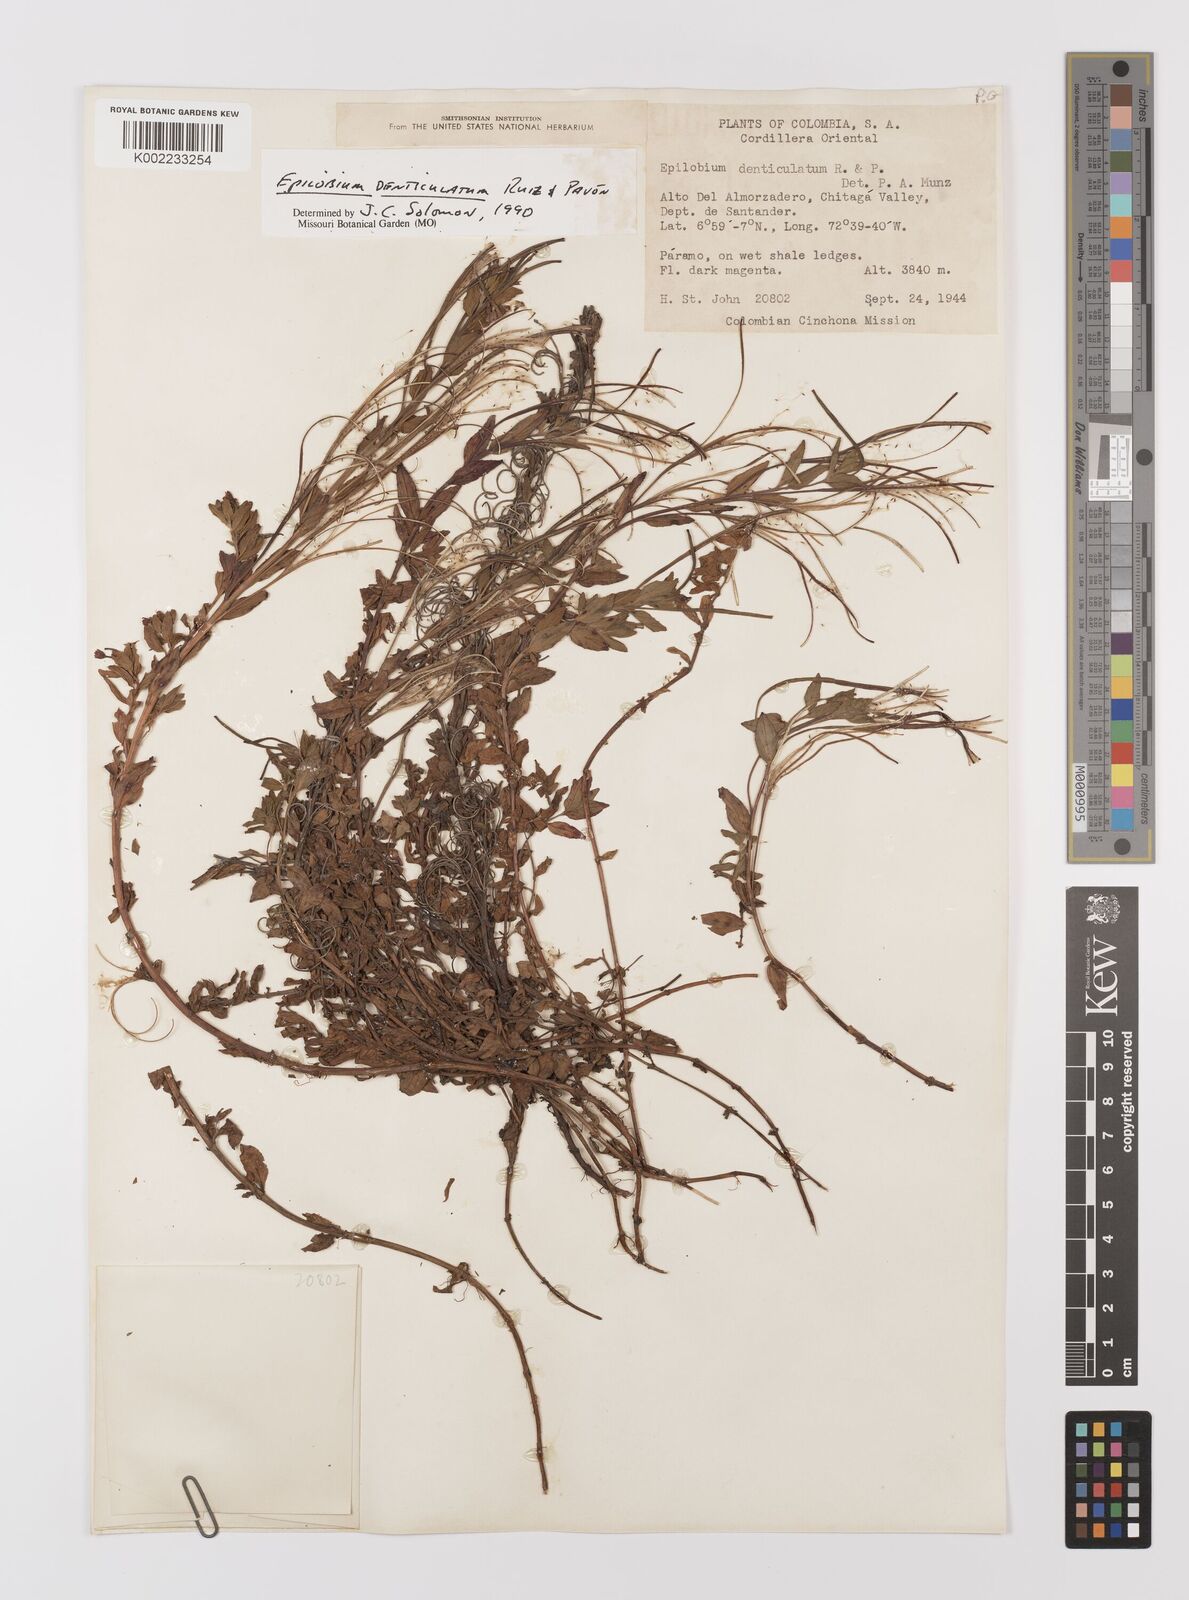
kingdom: Plantae
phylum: Tracheophyta
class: Magnoliopsida
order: Myrtales
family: Onagraceae
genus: Epilobium
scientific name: Epilobium denticulatum
